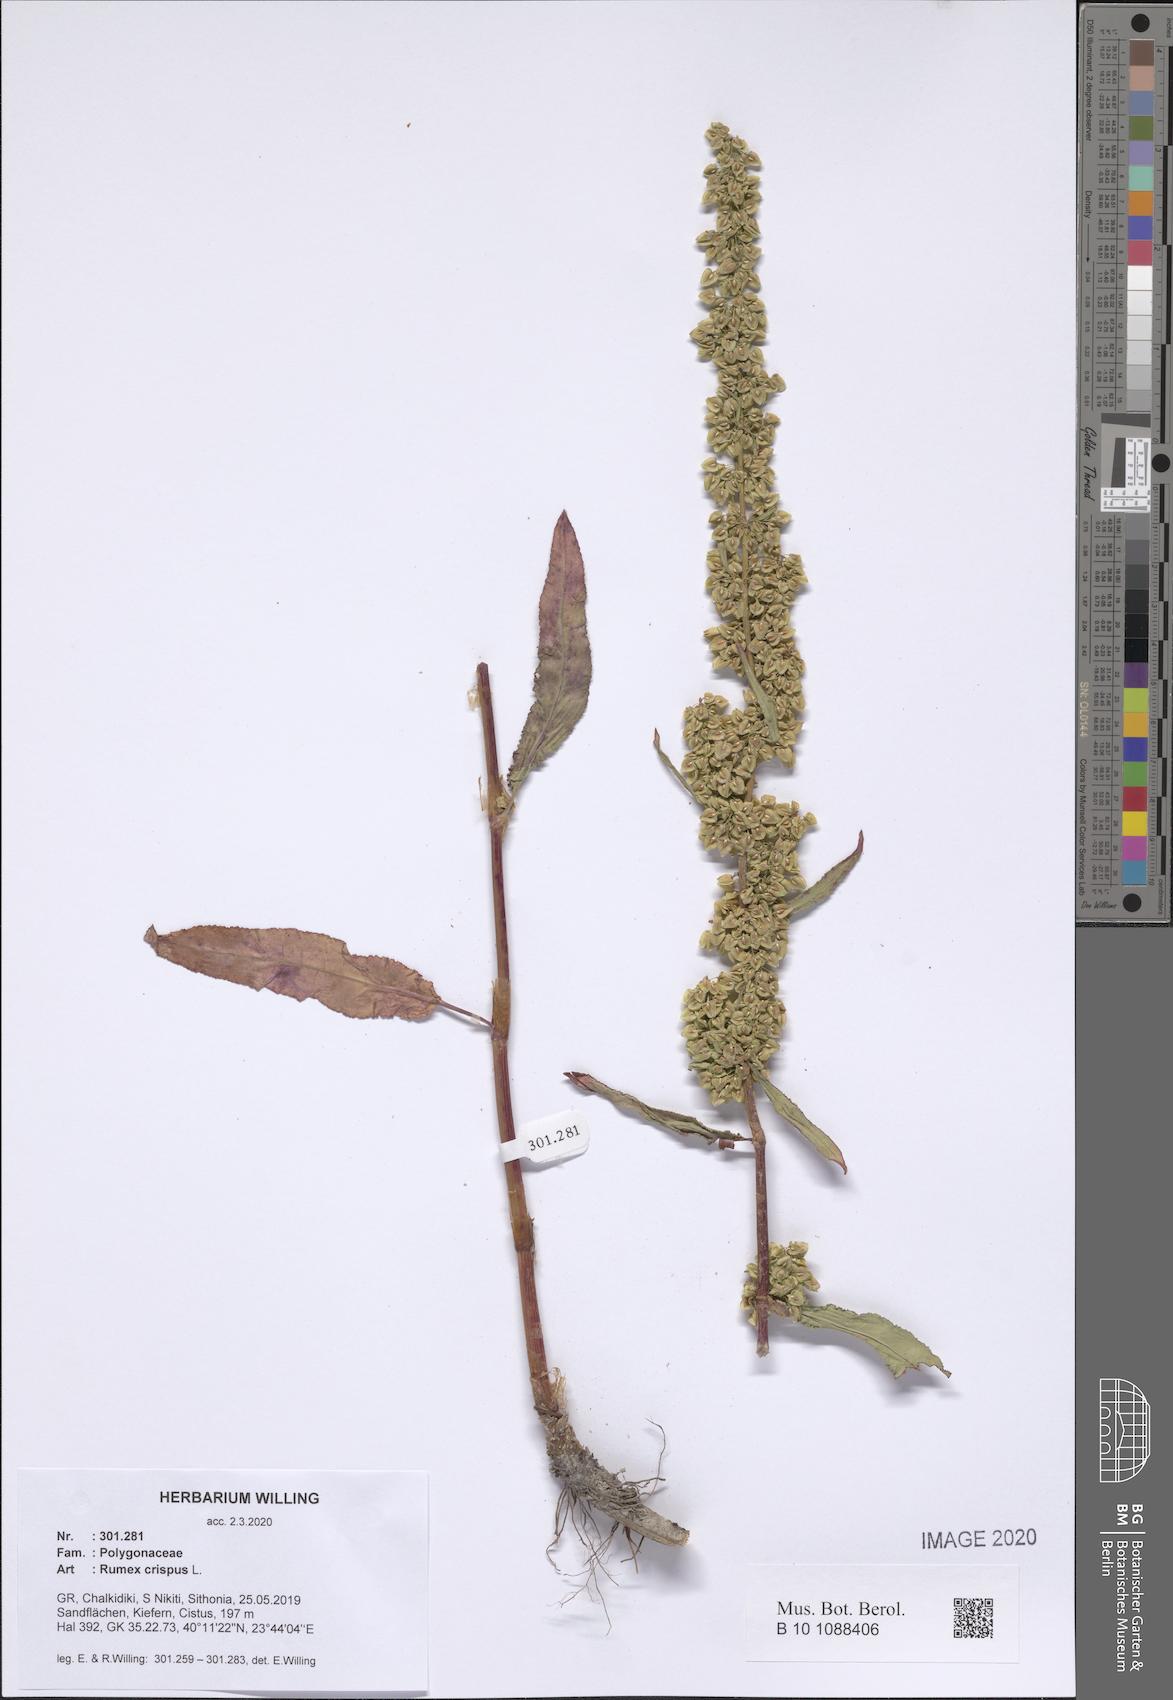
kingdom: Plantae
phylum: Tracheophyta
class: Magnoliopsida
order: Caryophyllales
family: Polygonaceae
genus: Rumex
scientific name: Rumex crispus
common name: Curled dock
